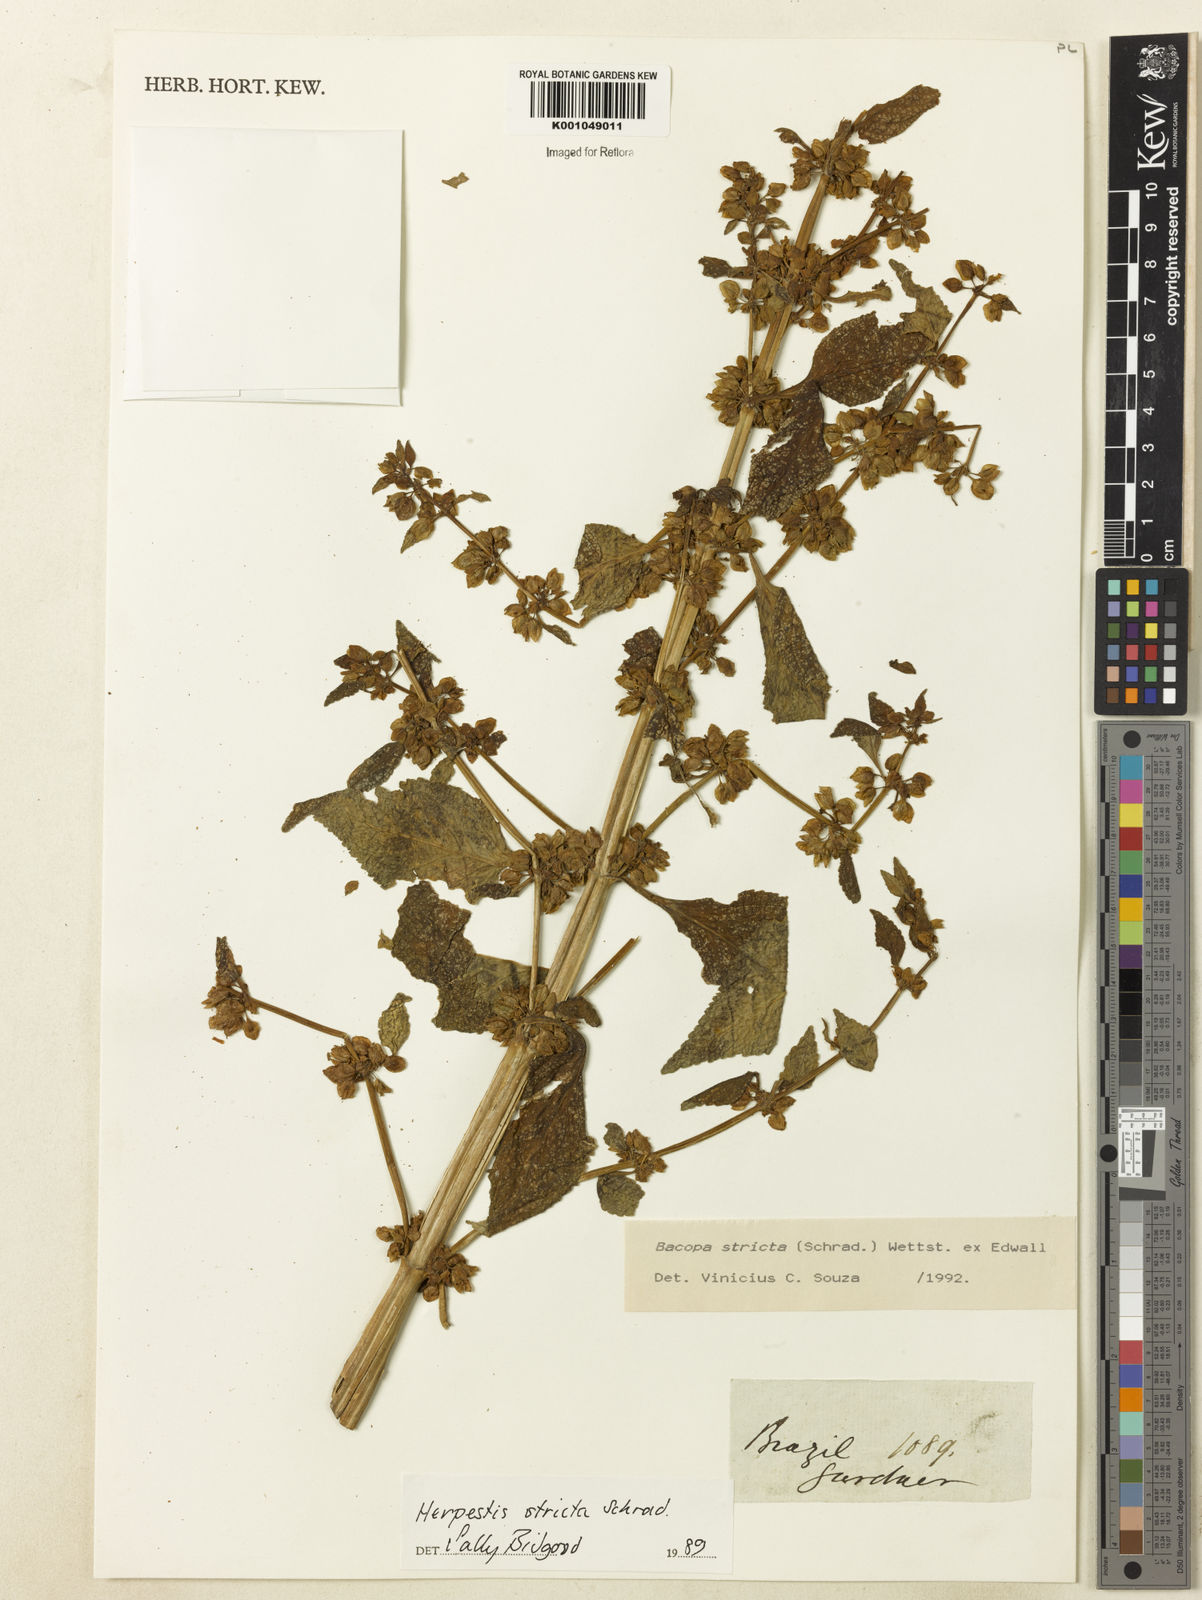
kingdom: Plantae
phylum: Tracheophyta
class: Magnoliopsida
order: Lamiales
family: Plantaginaceae
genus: Bacopa
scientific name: Bacopa stricta
